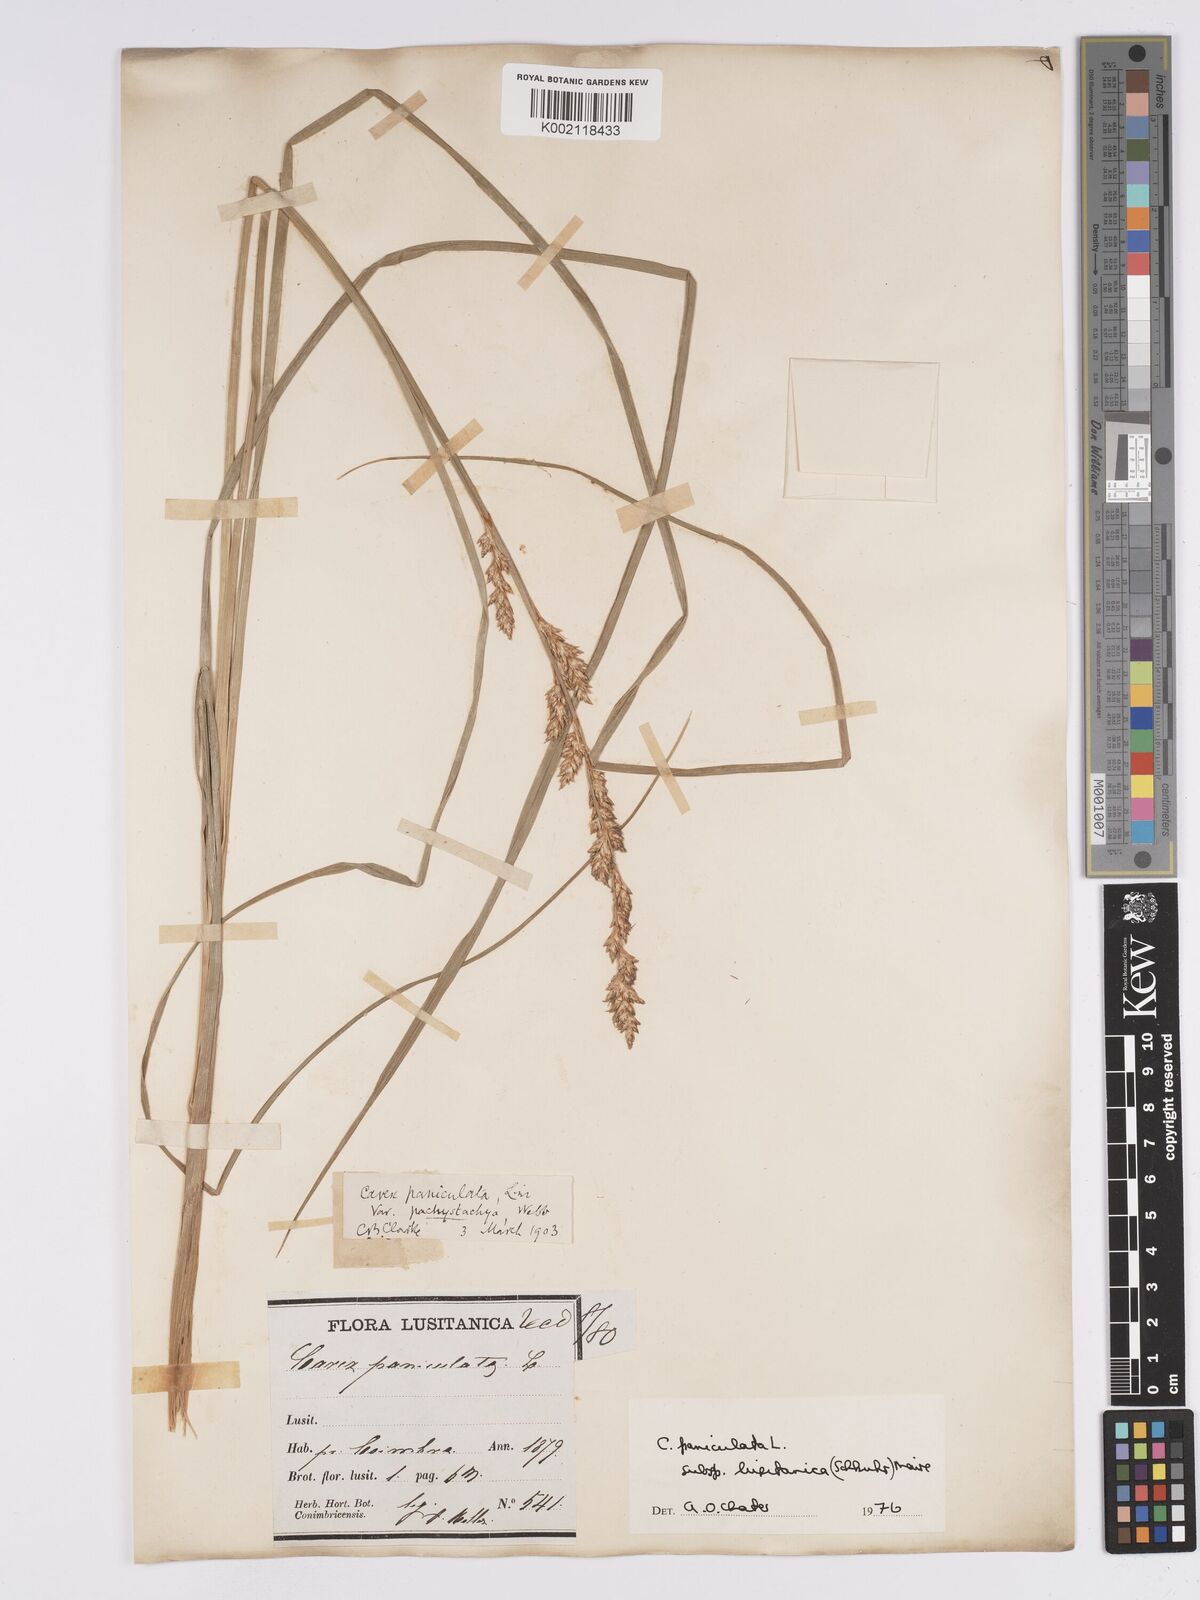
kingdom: Plantae
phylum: Tracheophyta
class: Liliopsida
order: Poales
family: Cyperaceae
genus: Carex
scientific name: Carex paniculata
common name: Greater tussock-sedge
